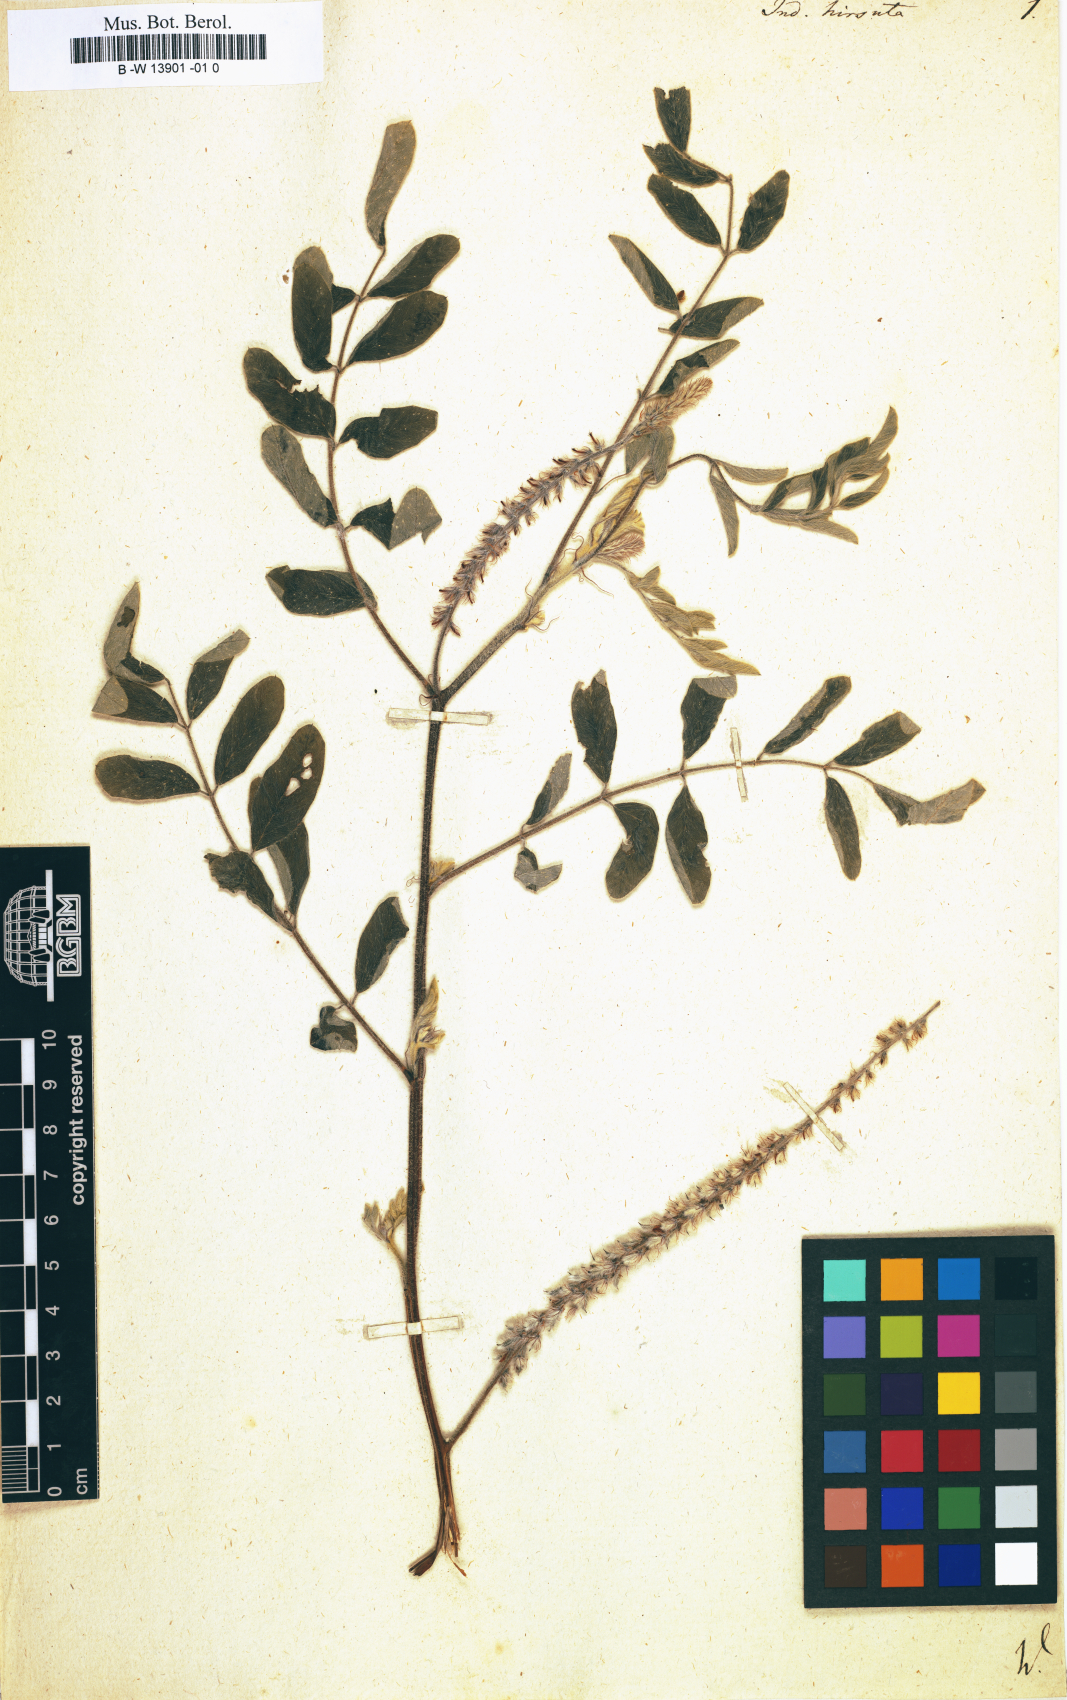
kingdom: Plantae
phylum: Tracheophyta
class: Magnoliopsida
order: Fabales
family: Fabaceae
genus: Indigofera
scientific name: Indigofera hirsuta
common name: Hairy indigo
